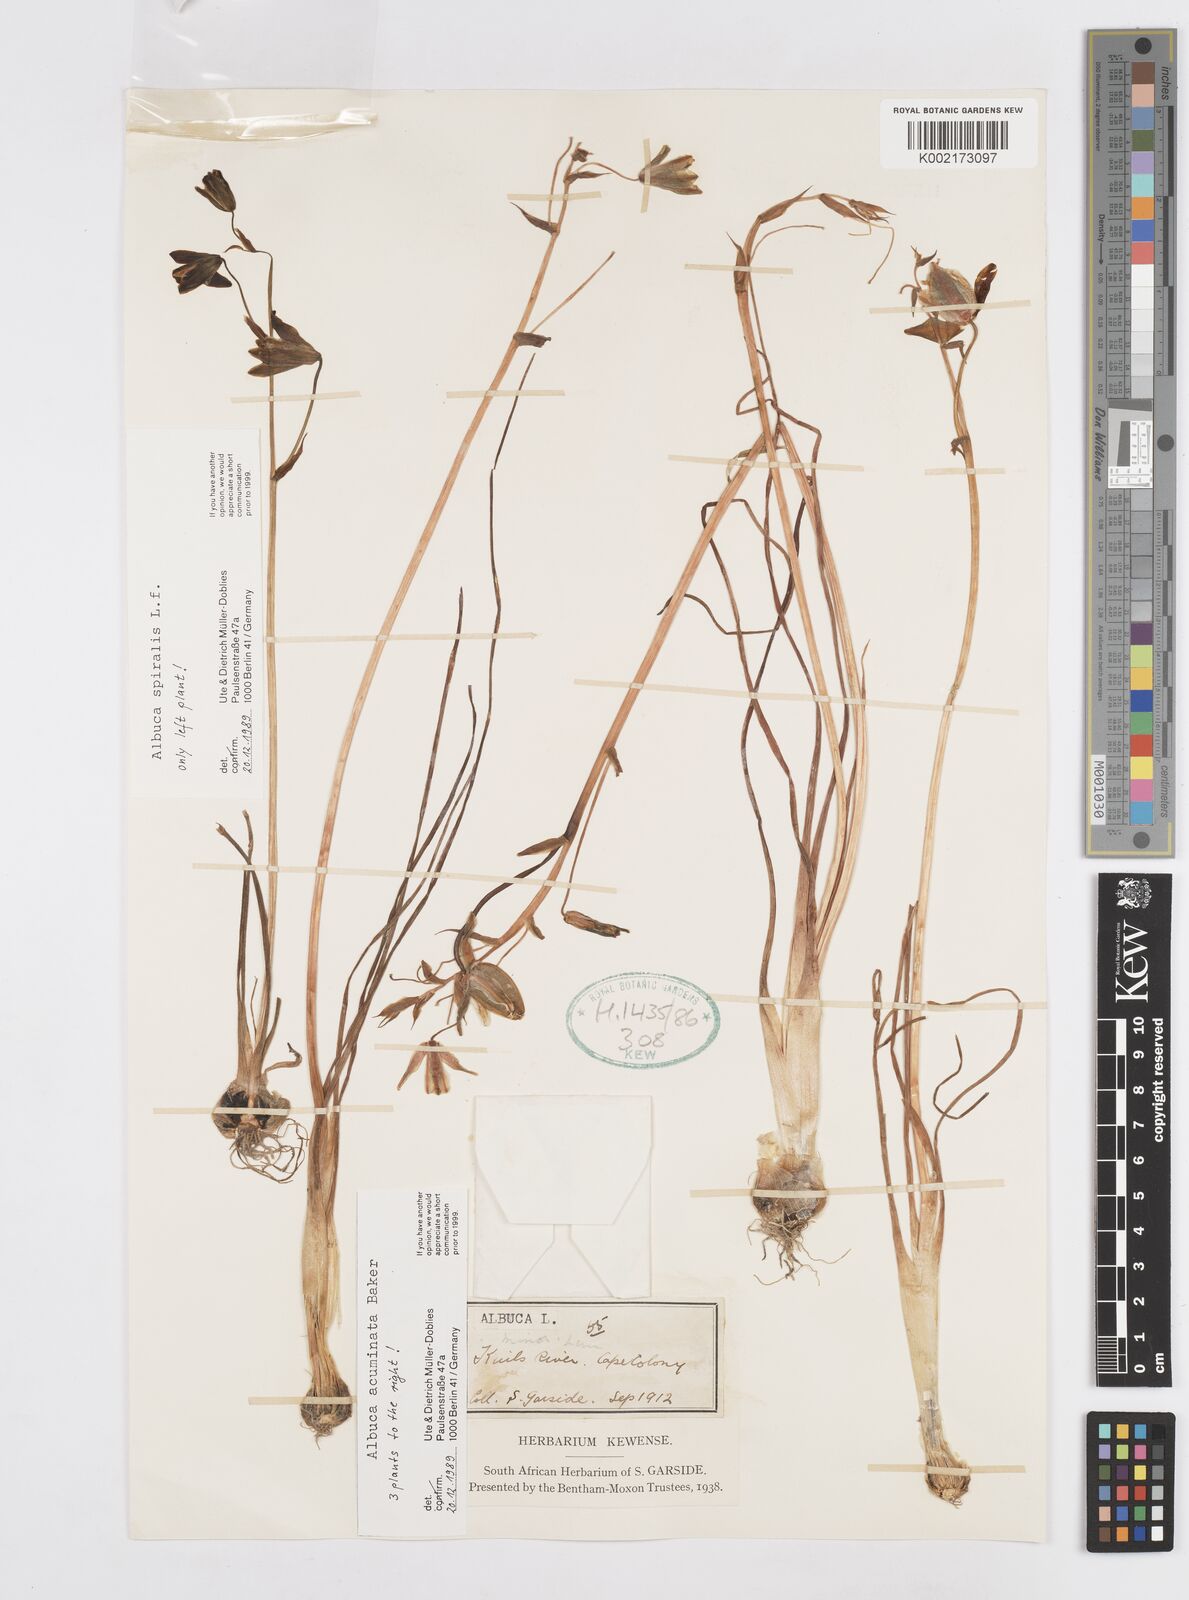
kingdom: Plantae
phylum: Tracheophyta
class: Liliopsida
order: Asparagales
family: Asparagaceae
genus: Albuca
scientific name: Albuca acuminata
